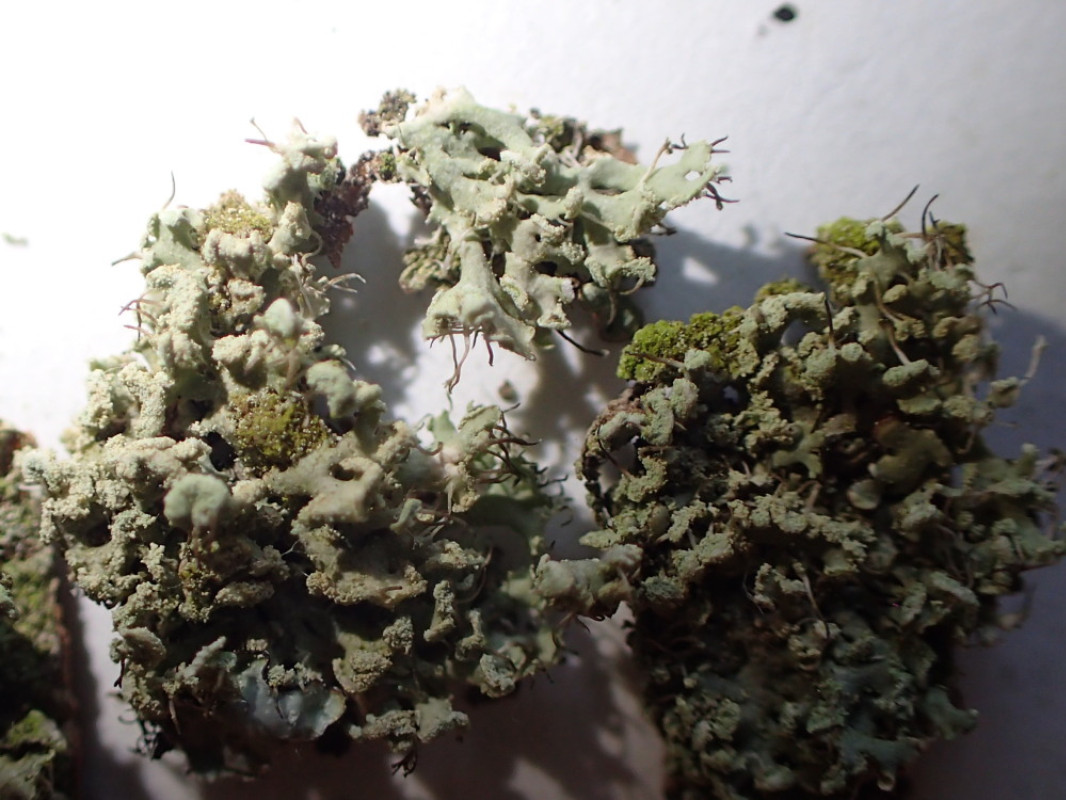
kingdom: Fungi
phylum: Ascomycota
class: Lecanoromycetes
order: Caliciales
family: Physciaceae
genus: Physcia
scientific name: Physcia tenella
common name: spæd rosetlav
